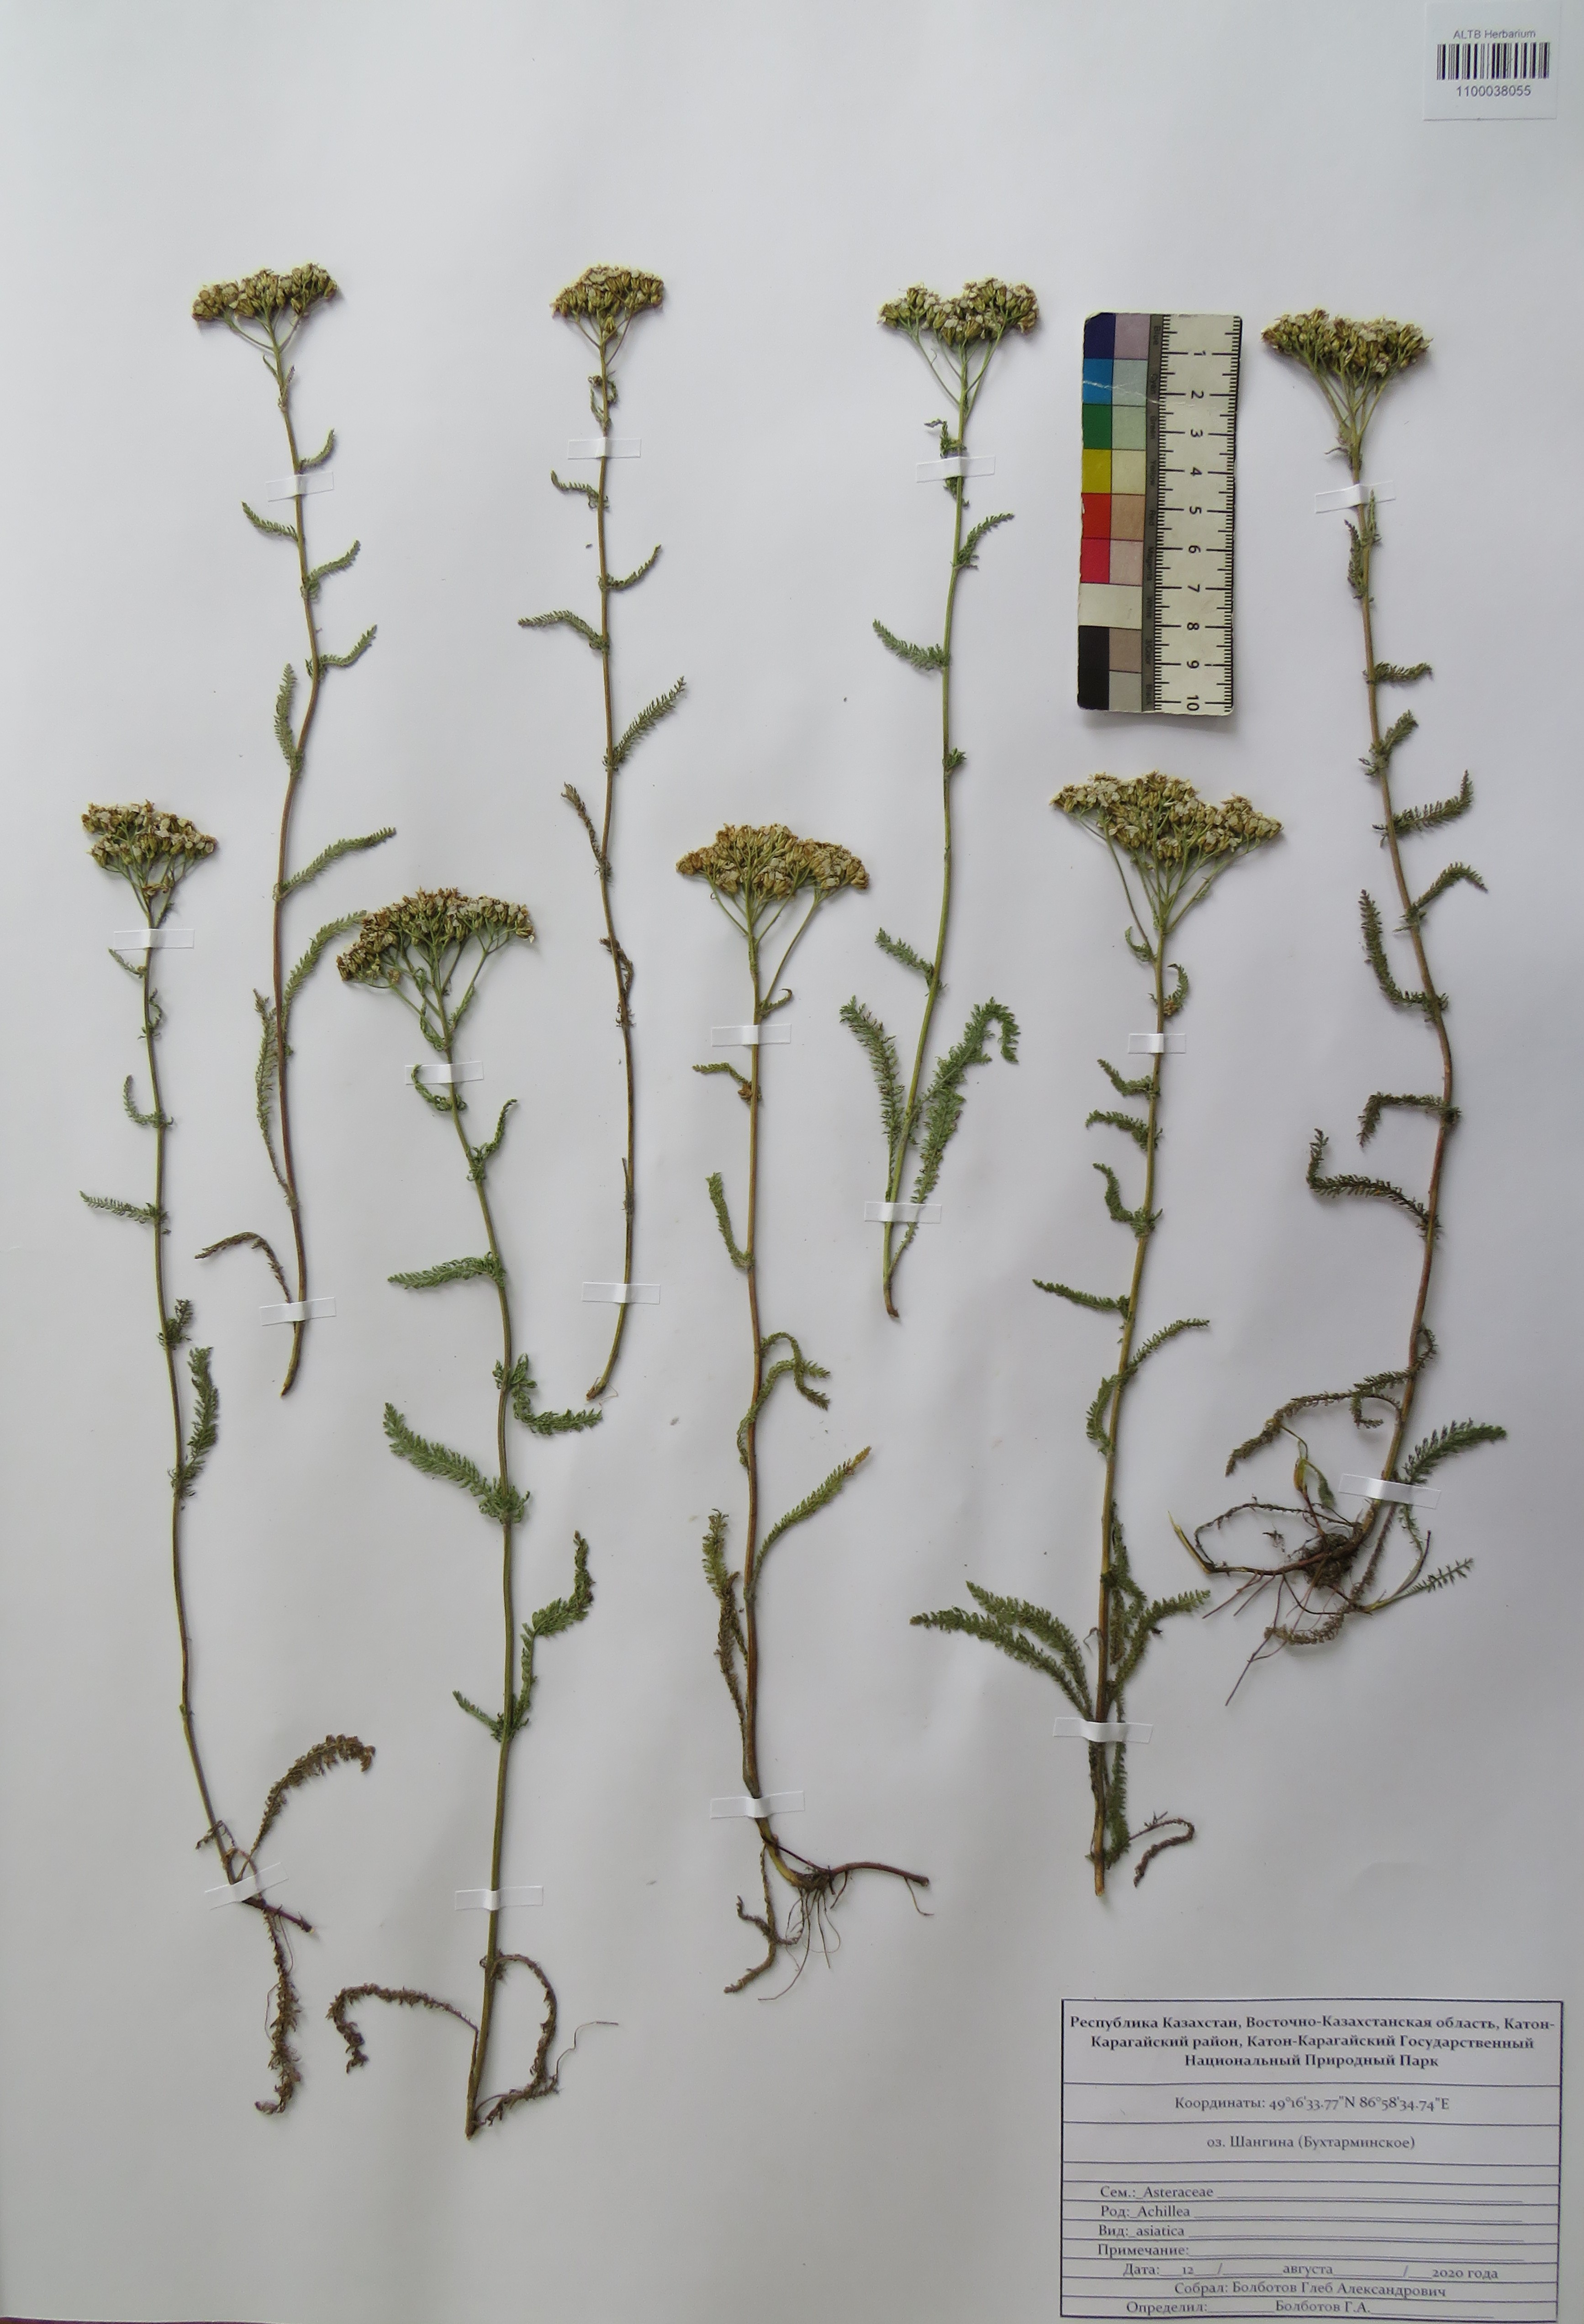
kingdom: Plantae
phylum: Tracheophyta
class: Magnoliopsida
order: Asterales
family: Asteraceae
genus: Achillea
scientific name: Achillea asiatica
